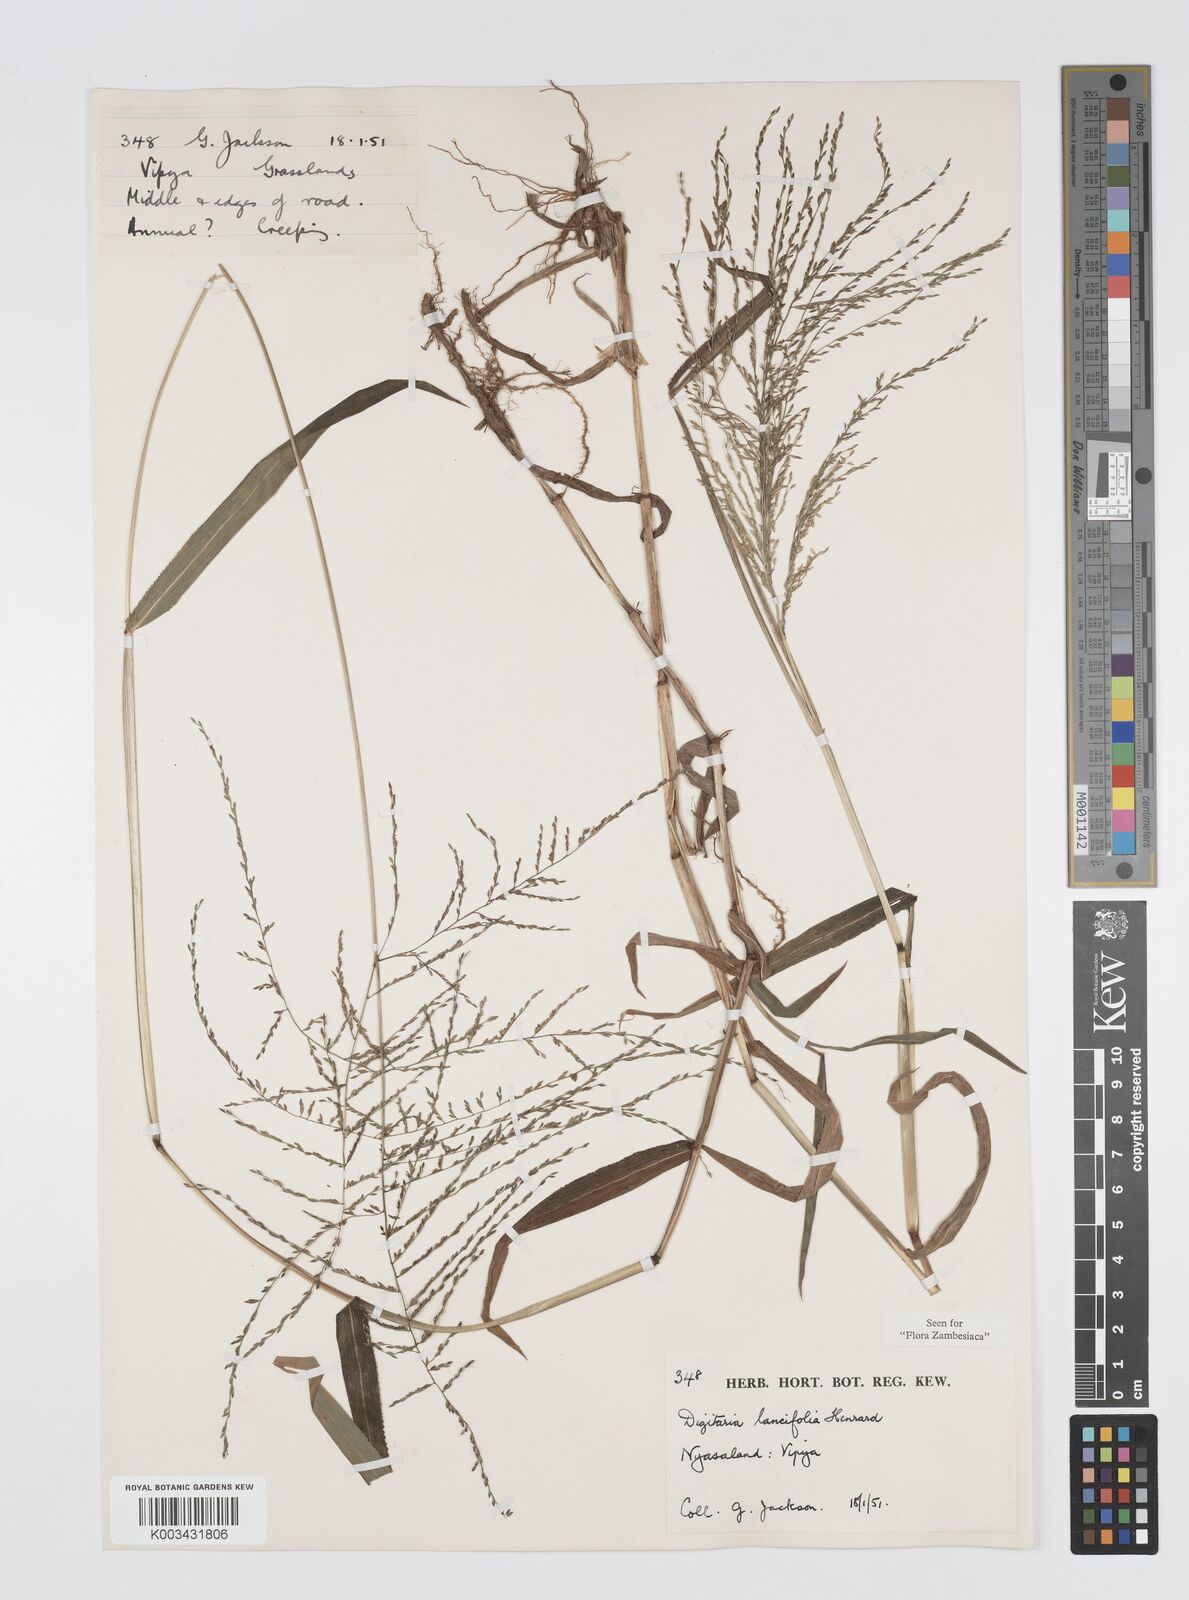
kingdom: Plantae
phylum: Tracheophyta
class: Liliopsida
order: Poales
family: Poaceae
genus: Digitaria
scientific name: Digitaria pearsonii
